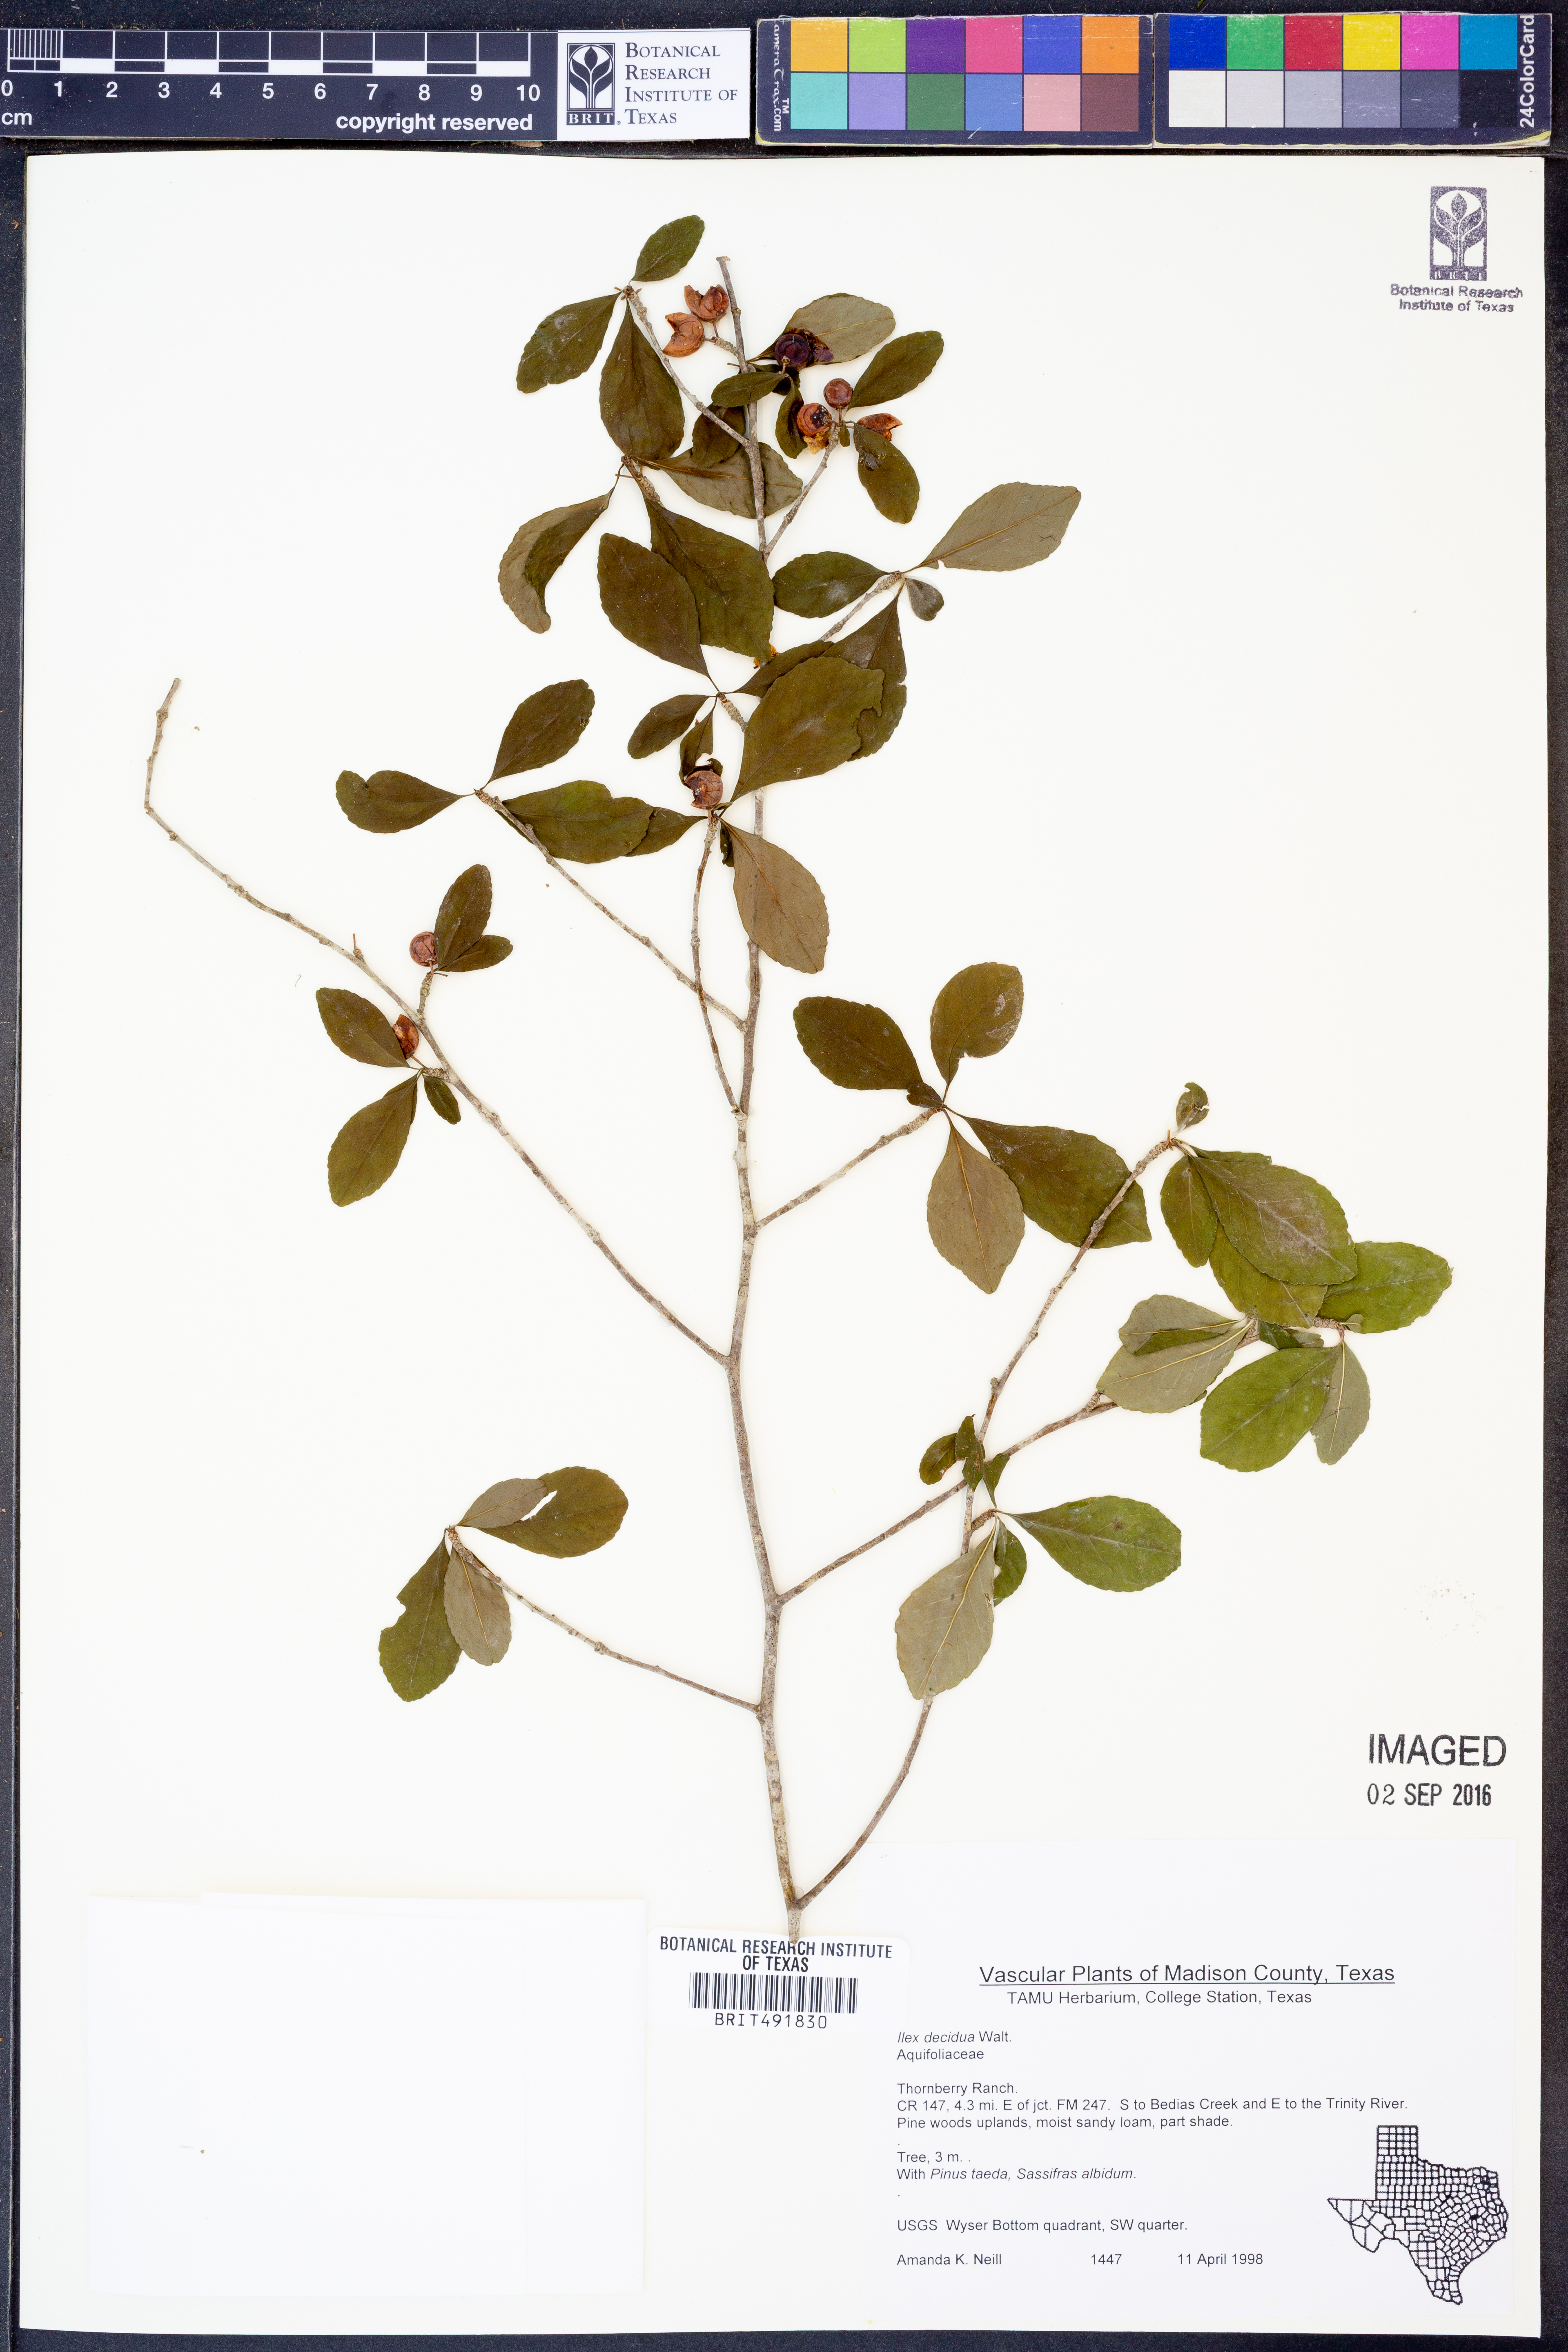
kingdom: Plantae
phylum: Tracheophyta
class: Magnoliopsida
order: Aquifoliales
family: Aquifoliaceae
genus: Ilex
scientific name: Ilex decidua
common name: Possum-haw
